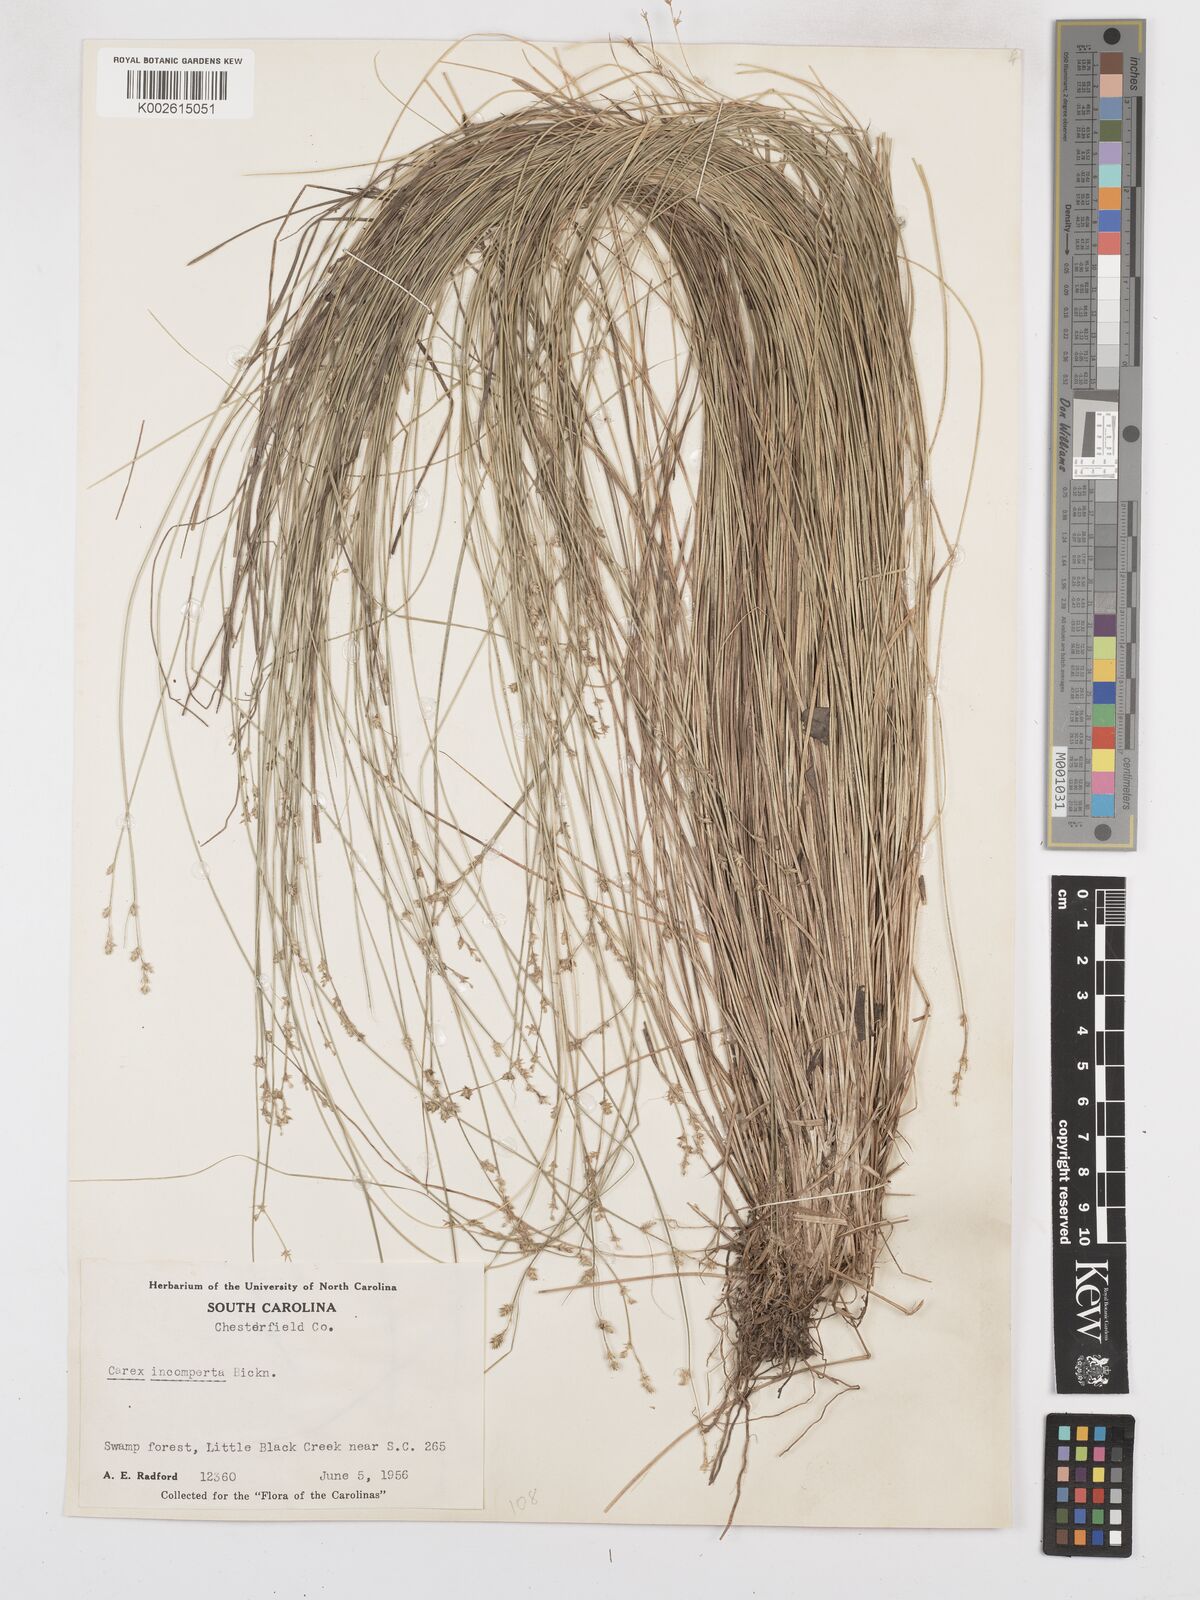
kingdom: Plantae
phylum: Tracheophyta
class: Liliopsida
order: Poales
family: Cyperaceae
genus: Carex
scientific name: Carex atlantica
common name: Atlantic sedge
